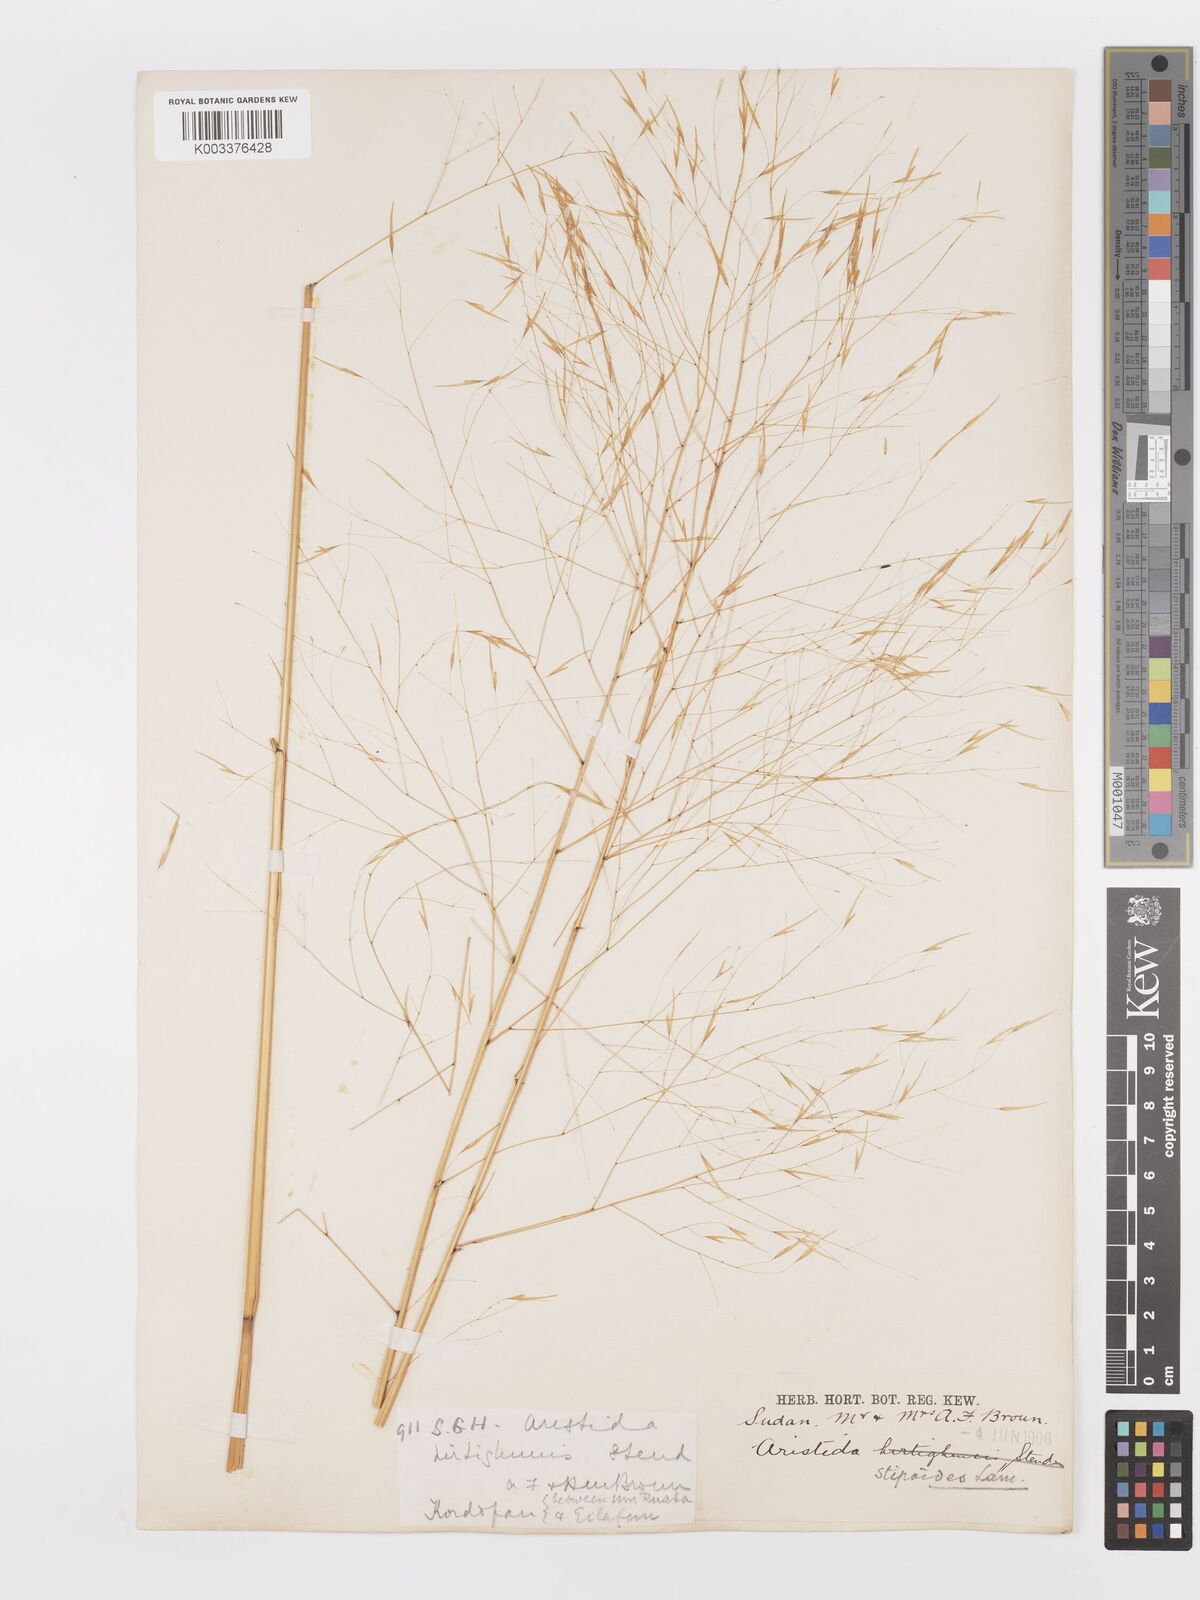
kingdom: Plantae
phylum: Tracheophyta
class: Liliopsida
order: Poales
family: Poaceae
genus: Aristida
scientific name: Aristida stipoides
